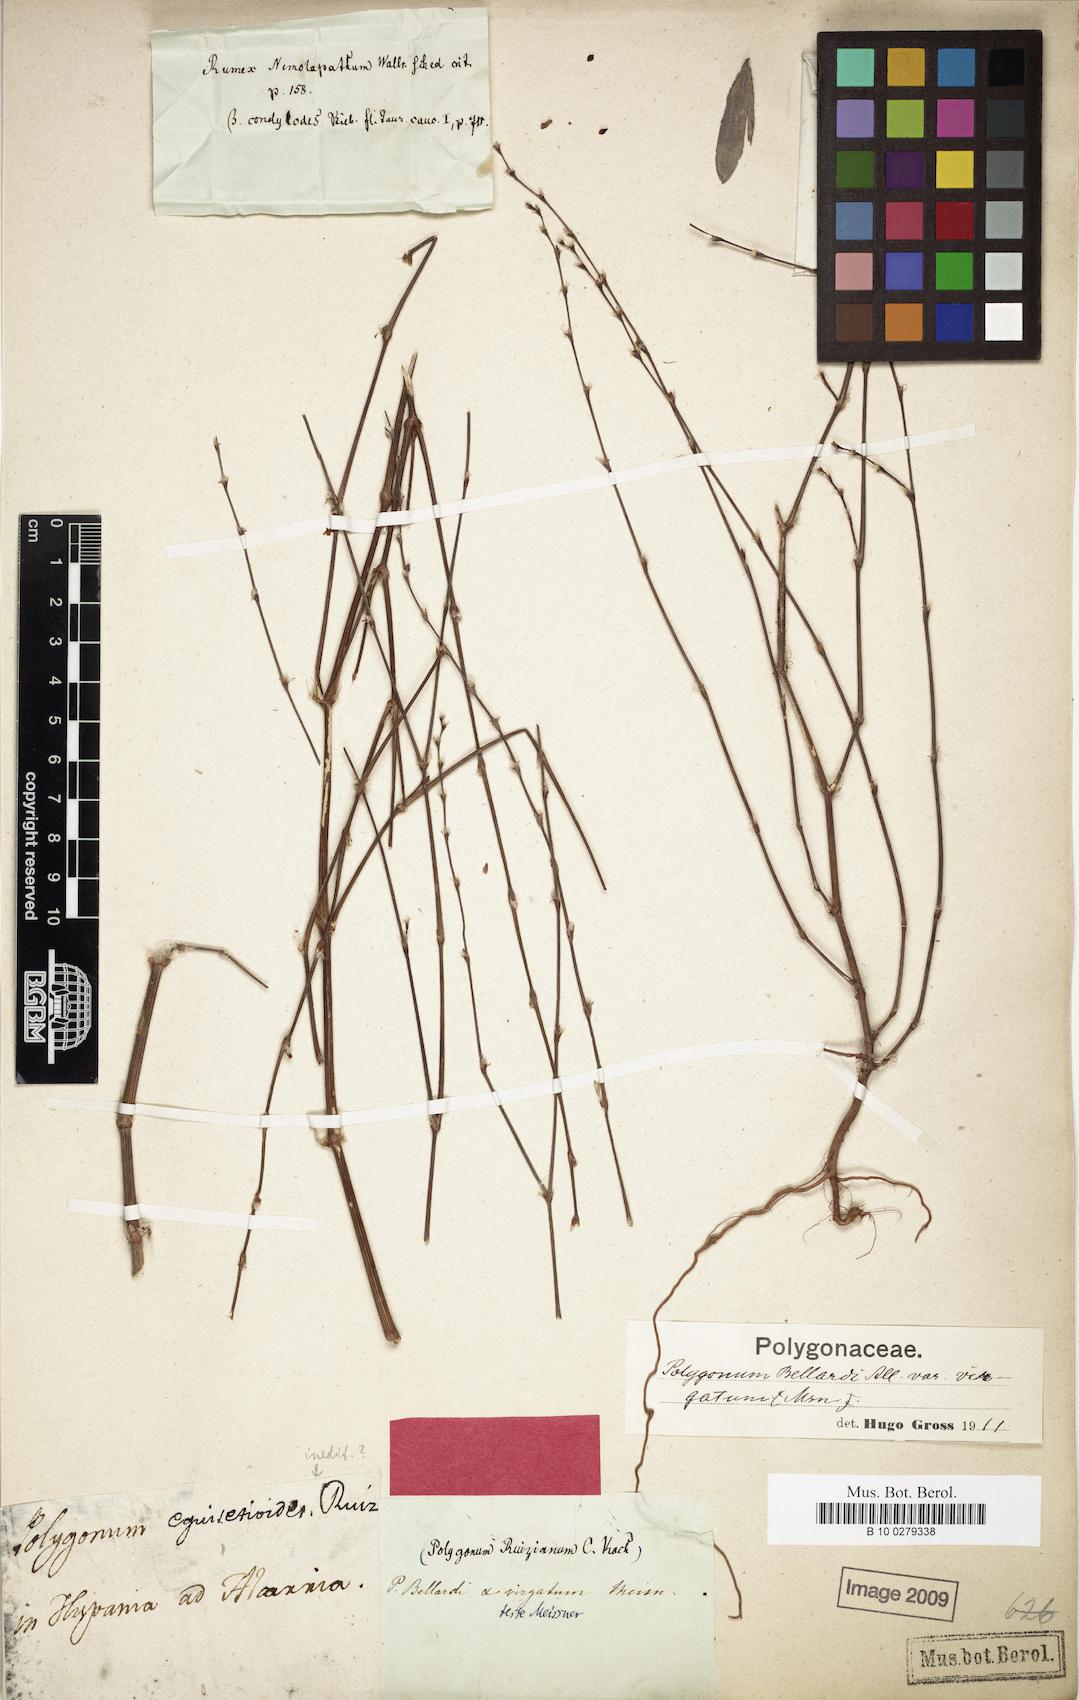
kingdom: Plantae
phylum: Tracheophyta
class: Magnoliopsida
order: Caryophyllales
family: Polygonaceae
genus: Polygonum
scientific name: Polygonum ruizianum
